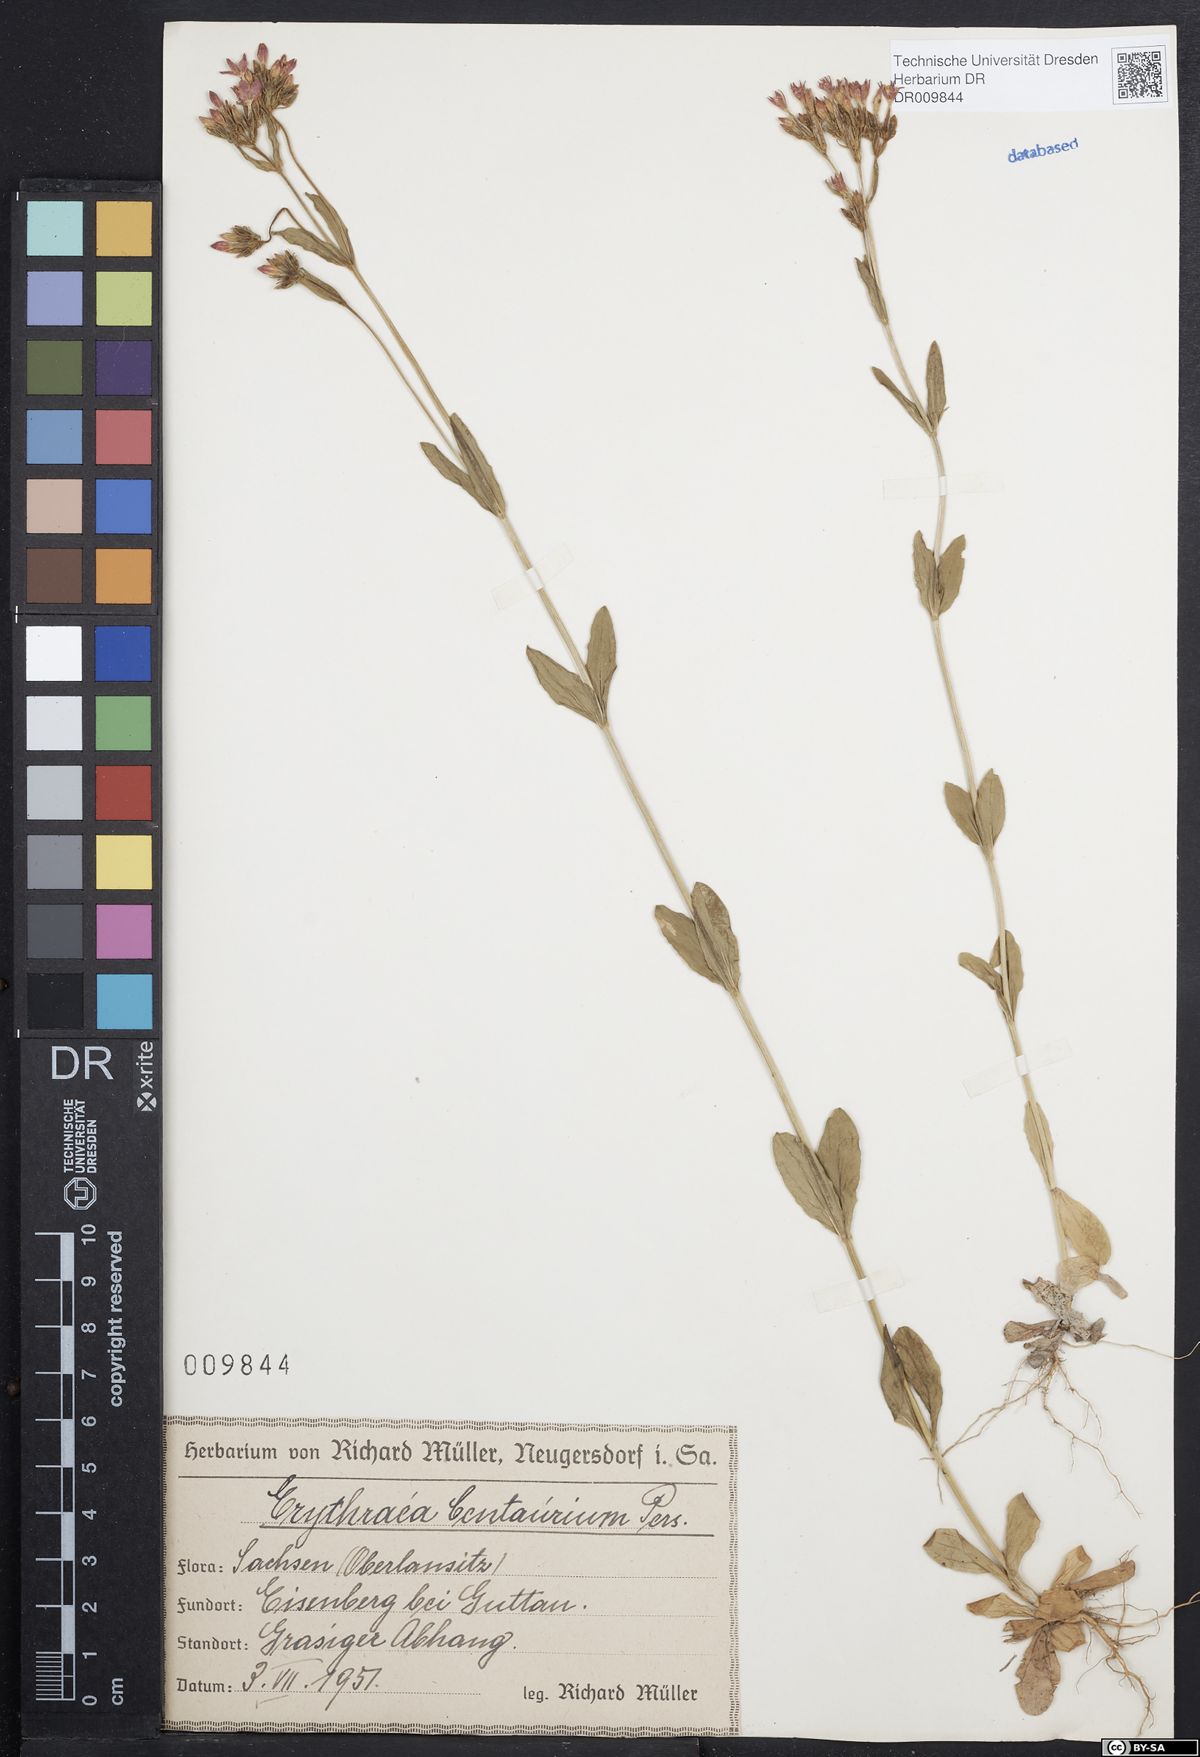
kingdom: Plantae
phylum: Tracheophyta
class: Magnoliopsida
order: Gentianales
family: Gentianaceae
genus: Centaurium
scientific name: Centaurium erythraea
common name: Common centaury
